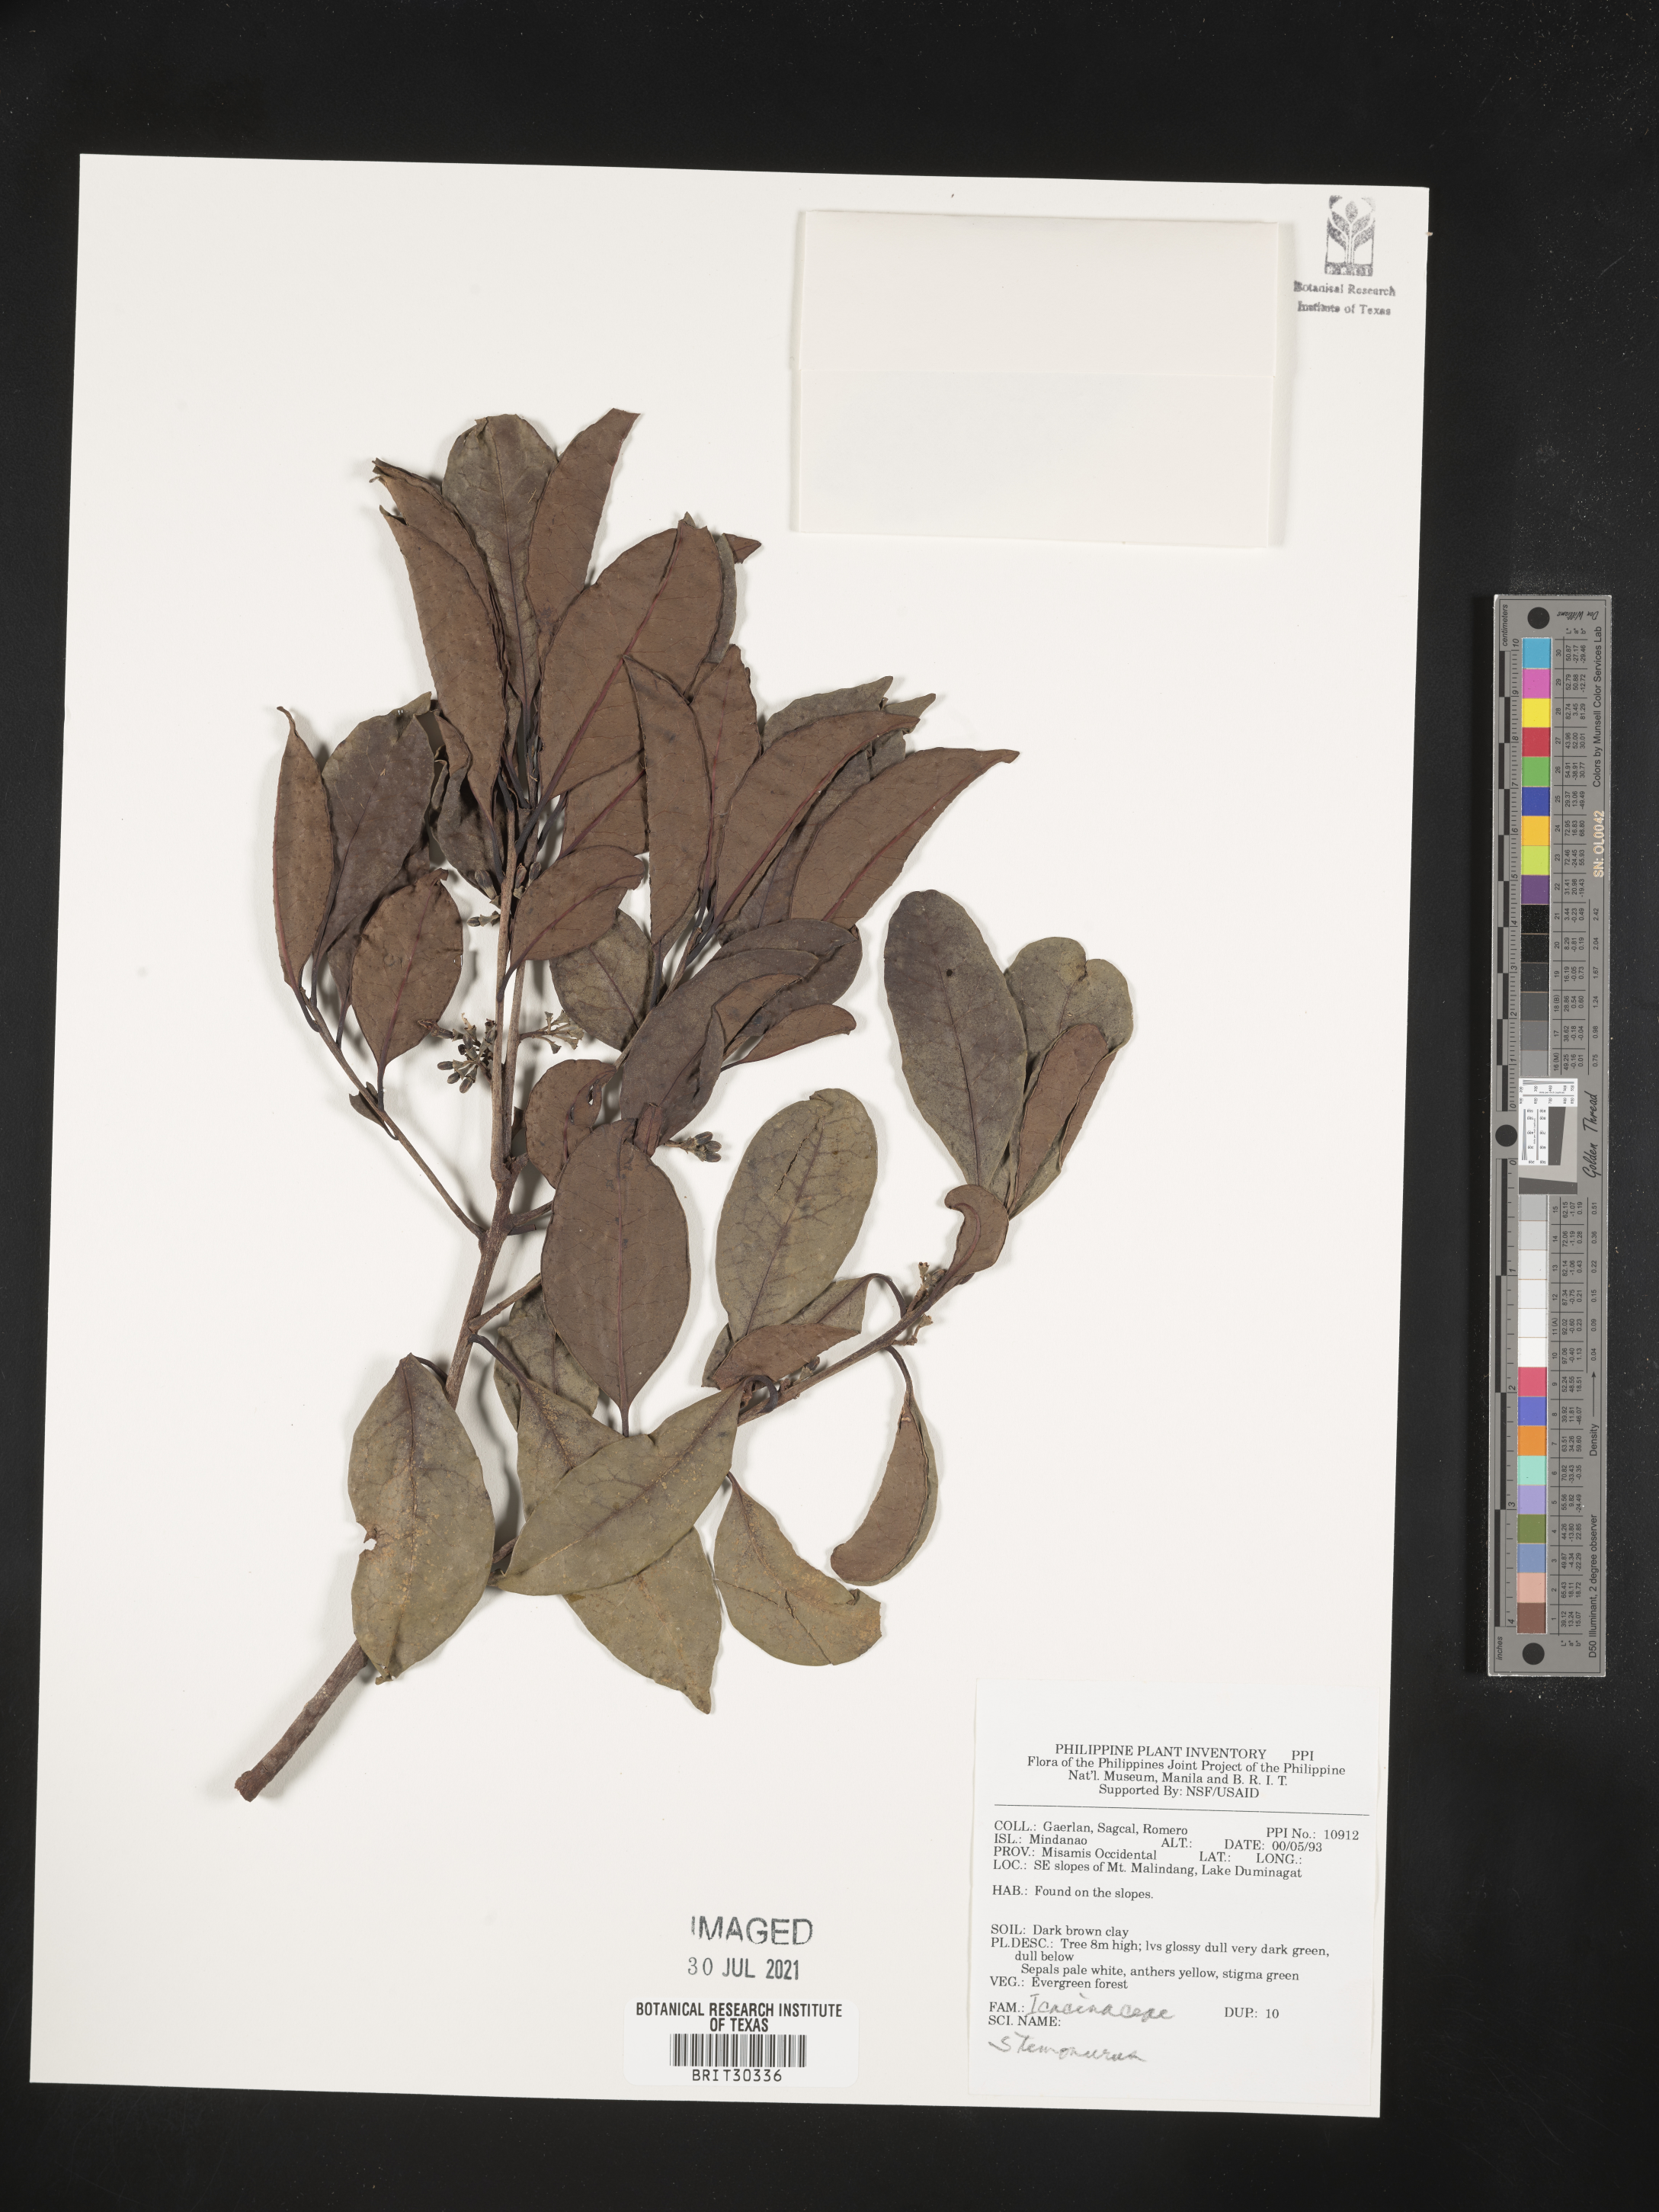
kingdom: Plantae
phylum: Tracheophyta
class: Magnoliopsida
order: Icacinales
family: Icacinaceae
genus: Stemonurus
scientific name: Stemonurus
